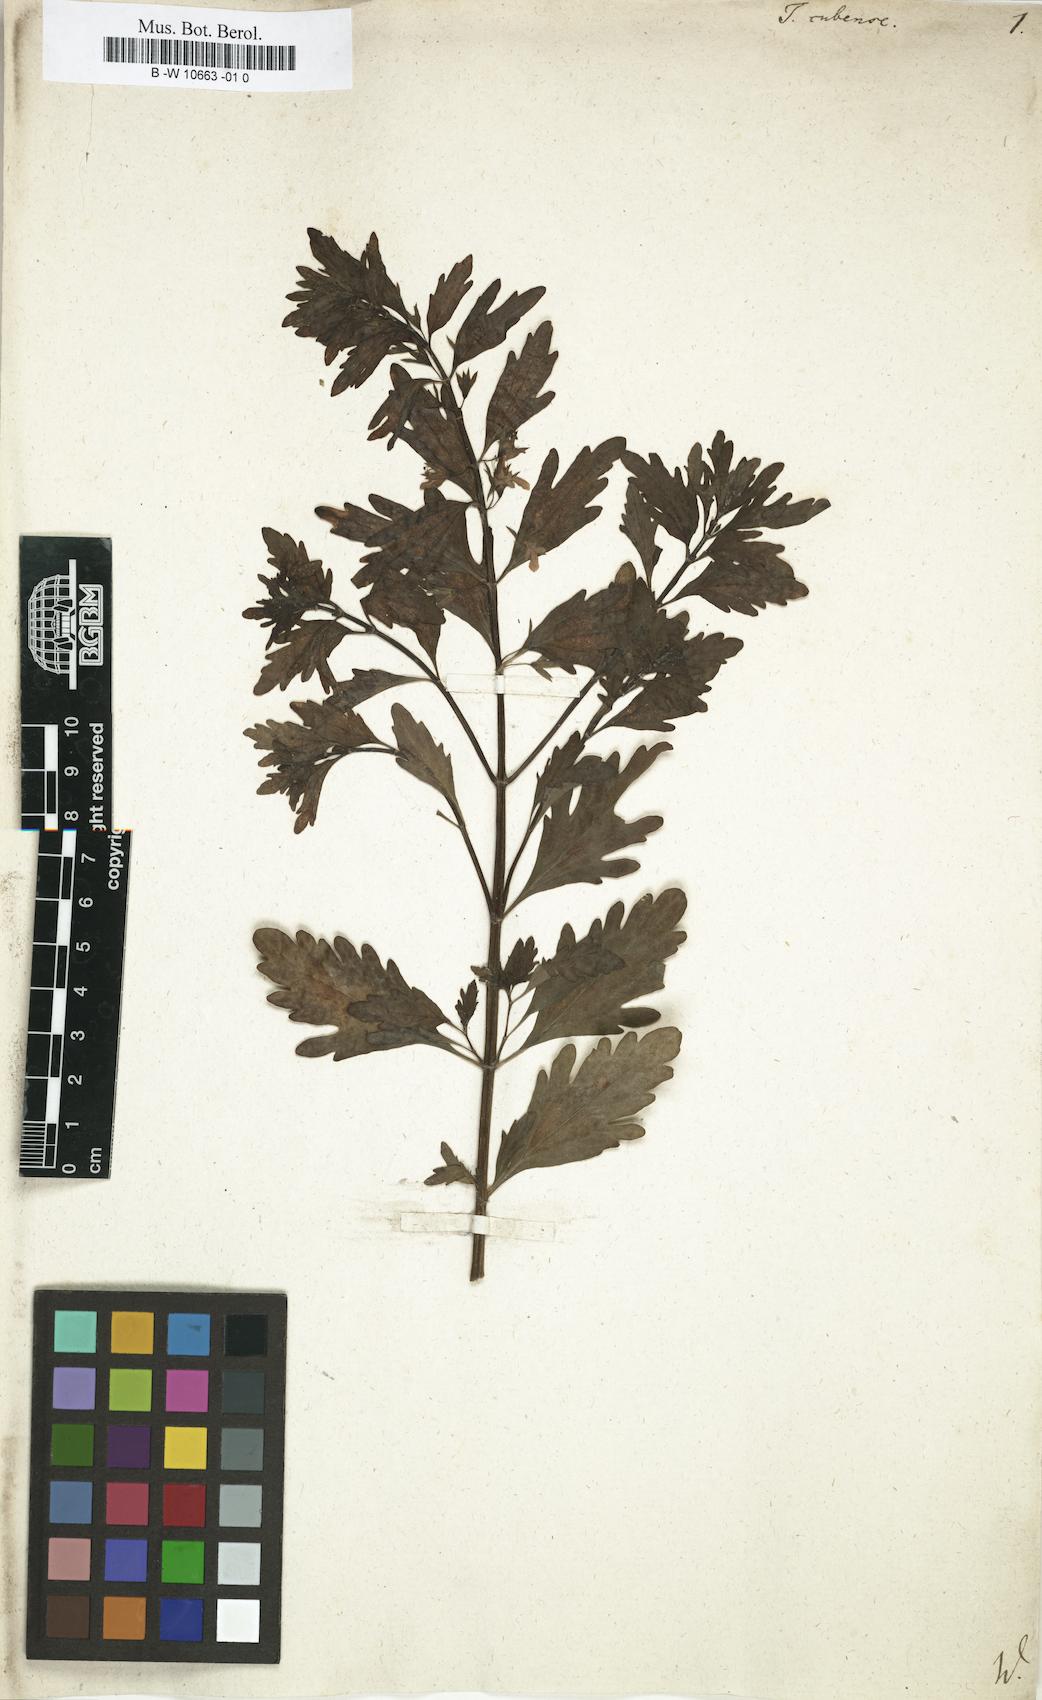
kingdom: Plantae
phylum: Tracheophyta
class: Magnoliopsida
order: Lamiales
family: Lamiaceae
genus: Teucrium
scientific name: Teucrium cubense
